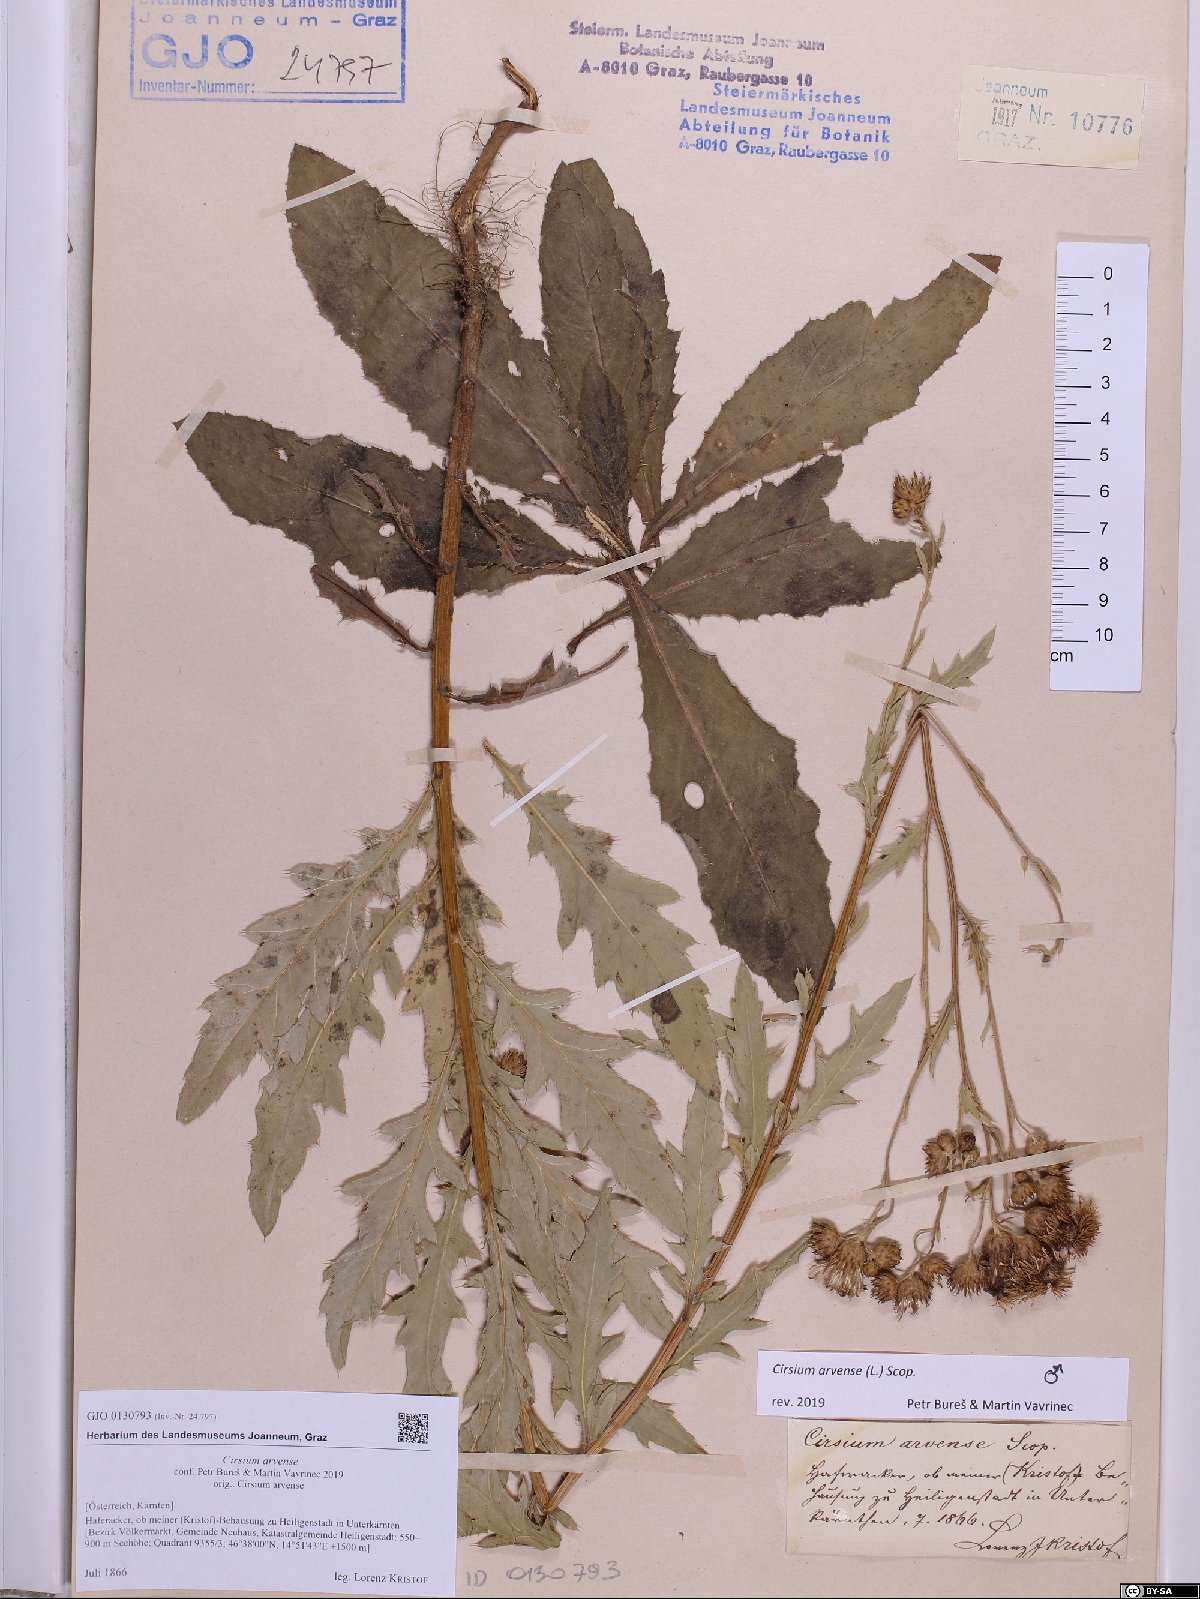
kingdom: Plantae
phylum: Tracheophyta
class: Magnoliopsida
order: Asterales
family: Asteraceae
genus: Cirsium
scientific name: Cirsium arvense
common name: Creeping thistle
